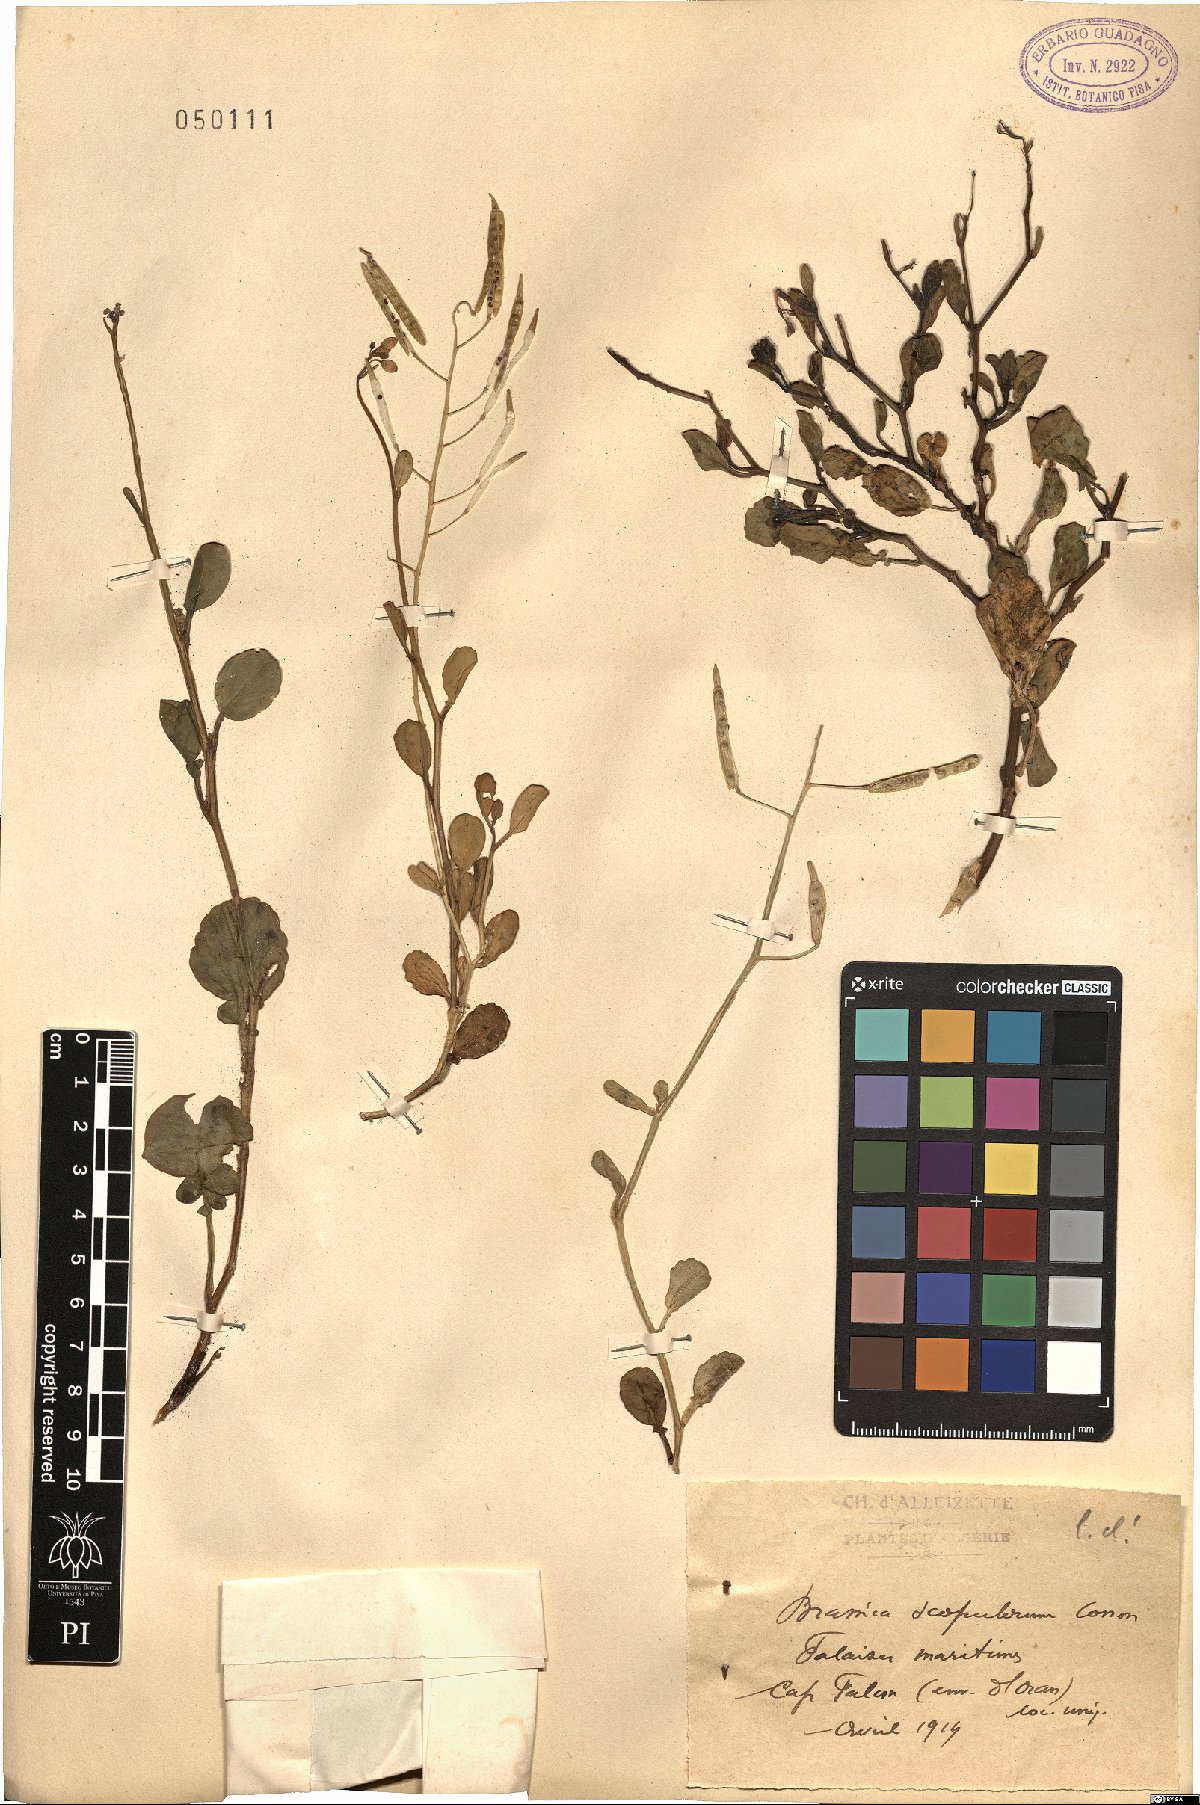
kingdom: Plantae
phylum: Tracheophyta
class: Magnoliopsida
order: Brassicales
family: Brassicaceae
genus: Brassica
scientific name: Brassica spinescens
